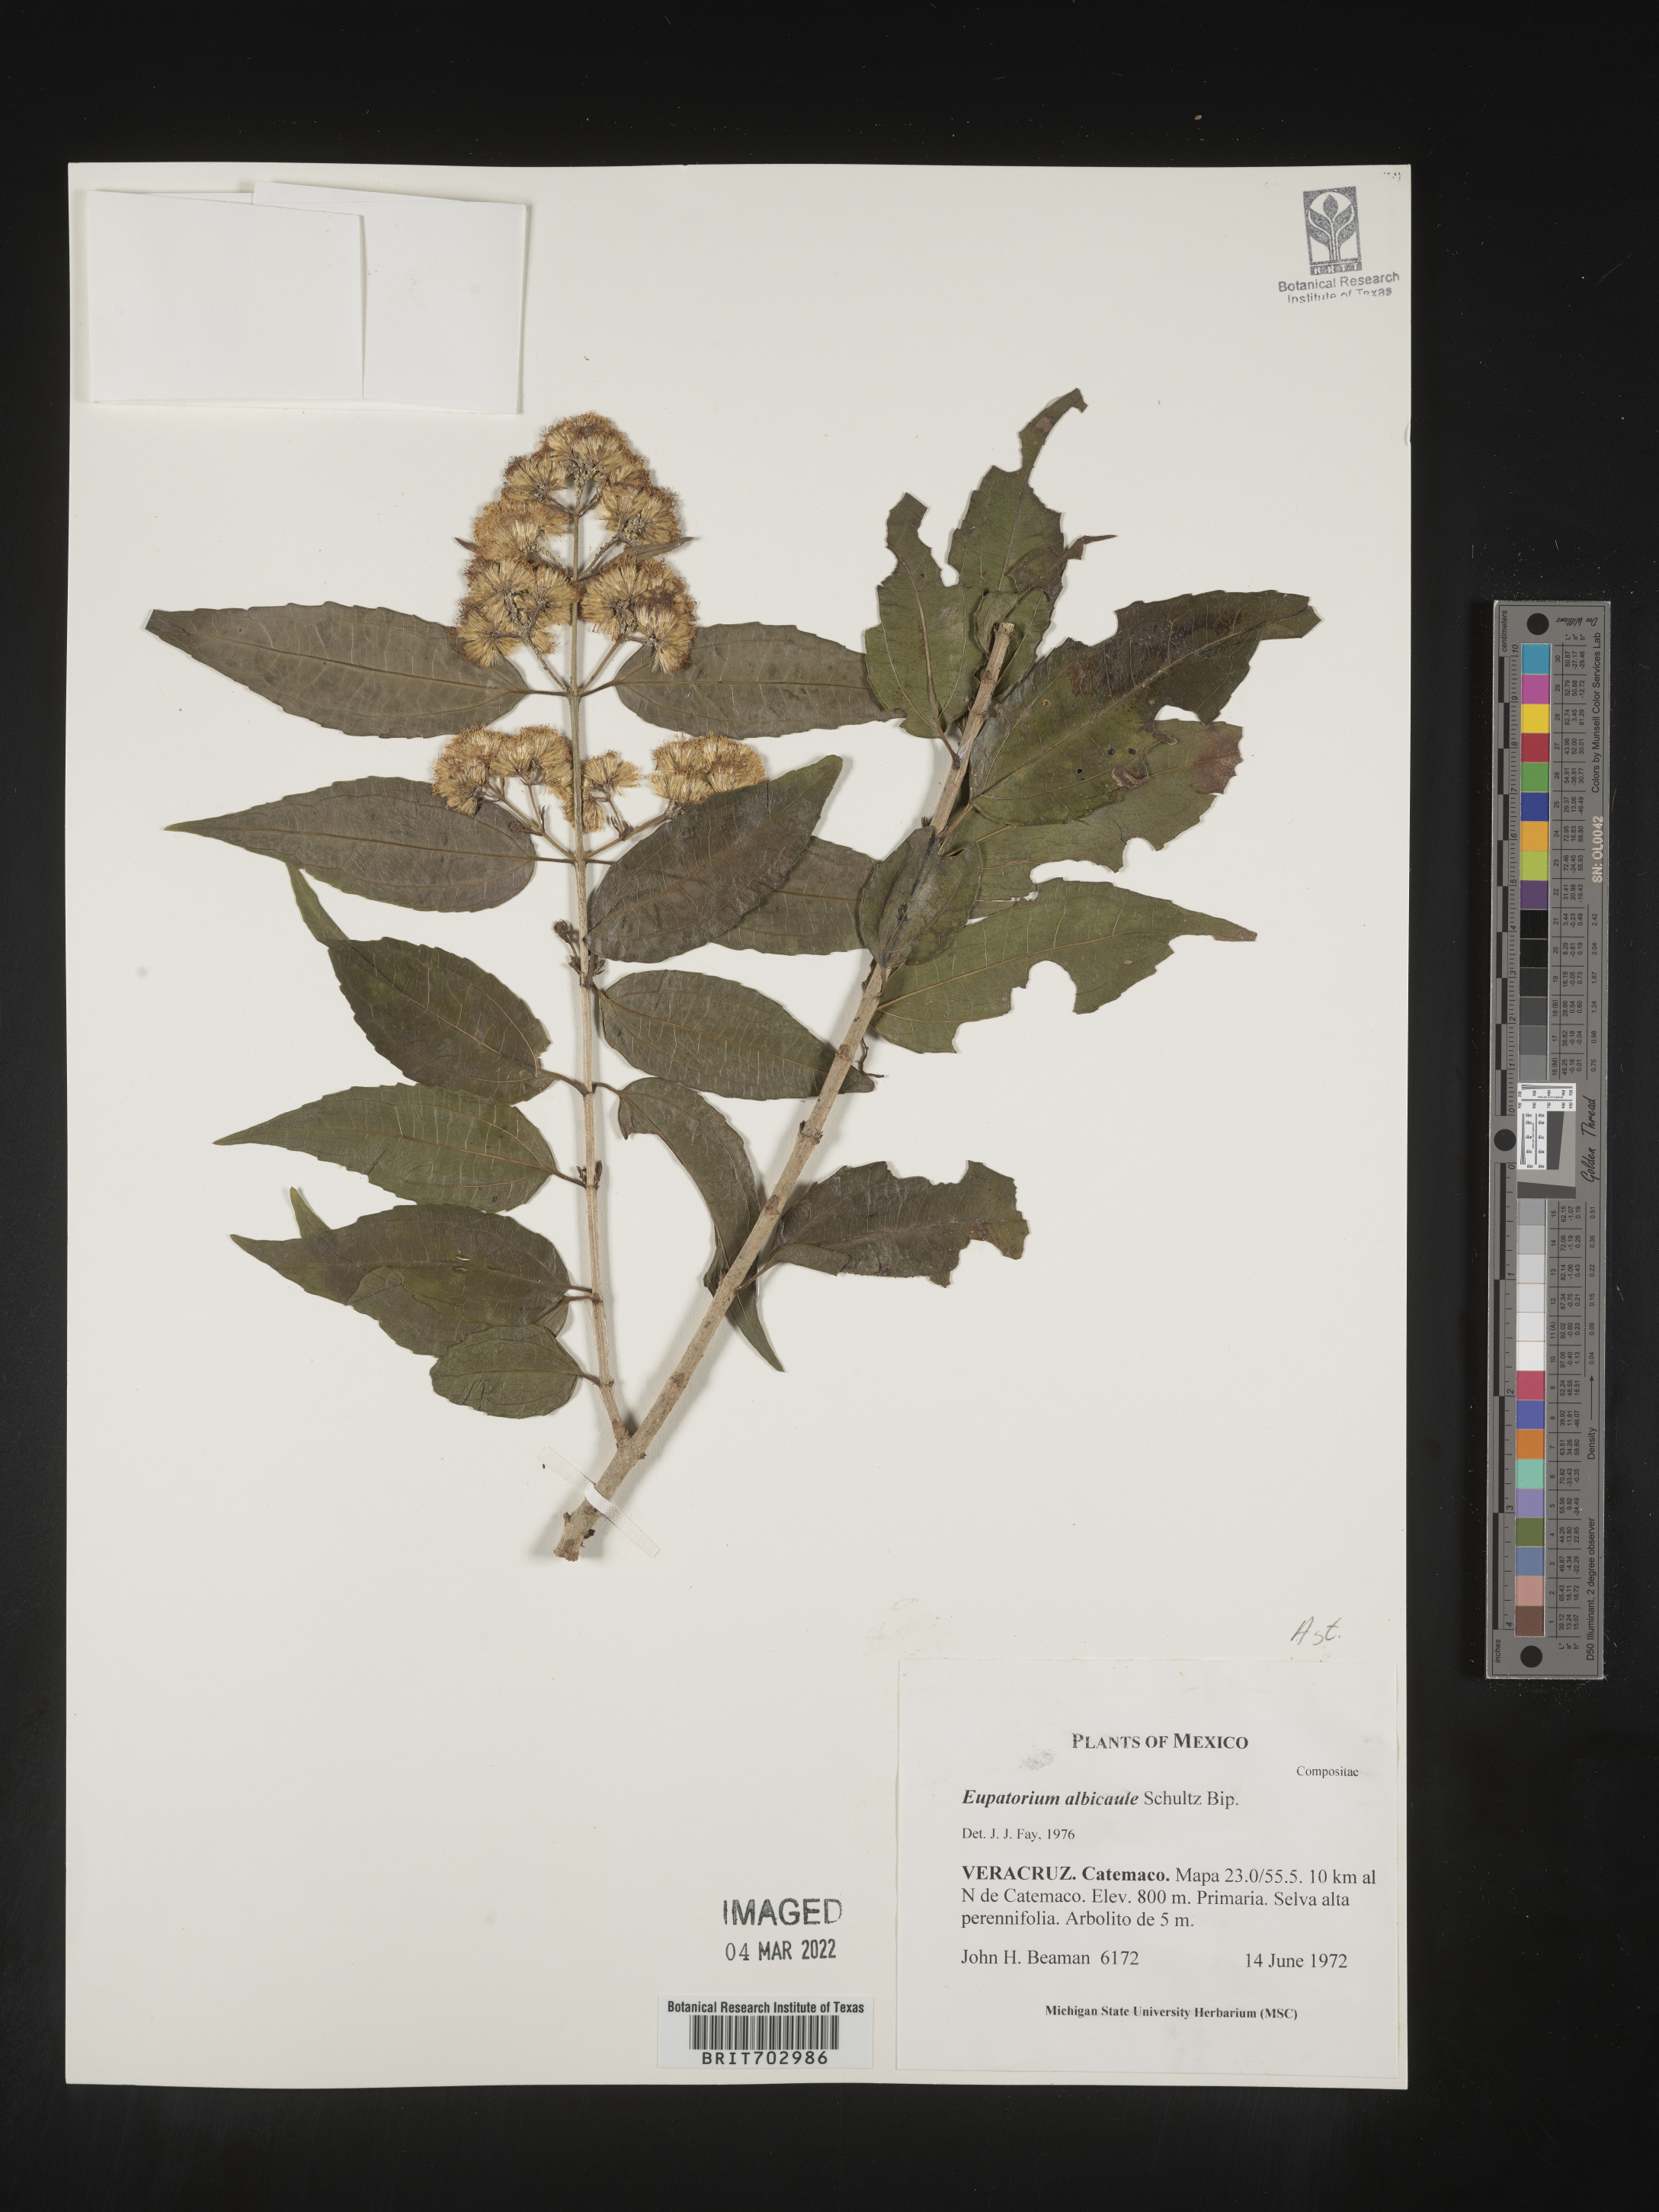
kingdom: Plantae
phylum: Tracheophyta
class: Magnoliopsida
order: Asterales
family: Asteraceae
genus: Eupatorium
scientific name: Eupatorium
